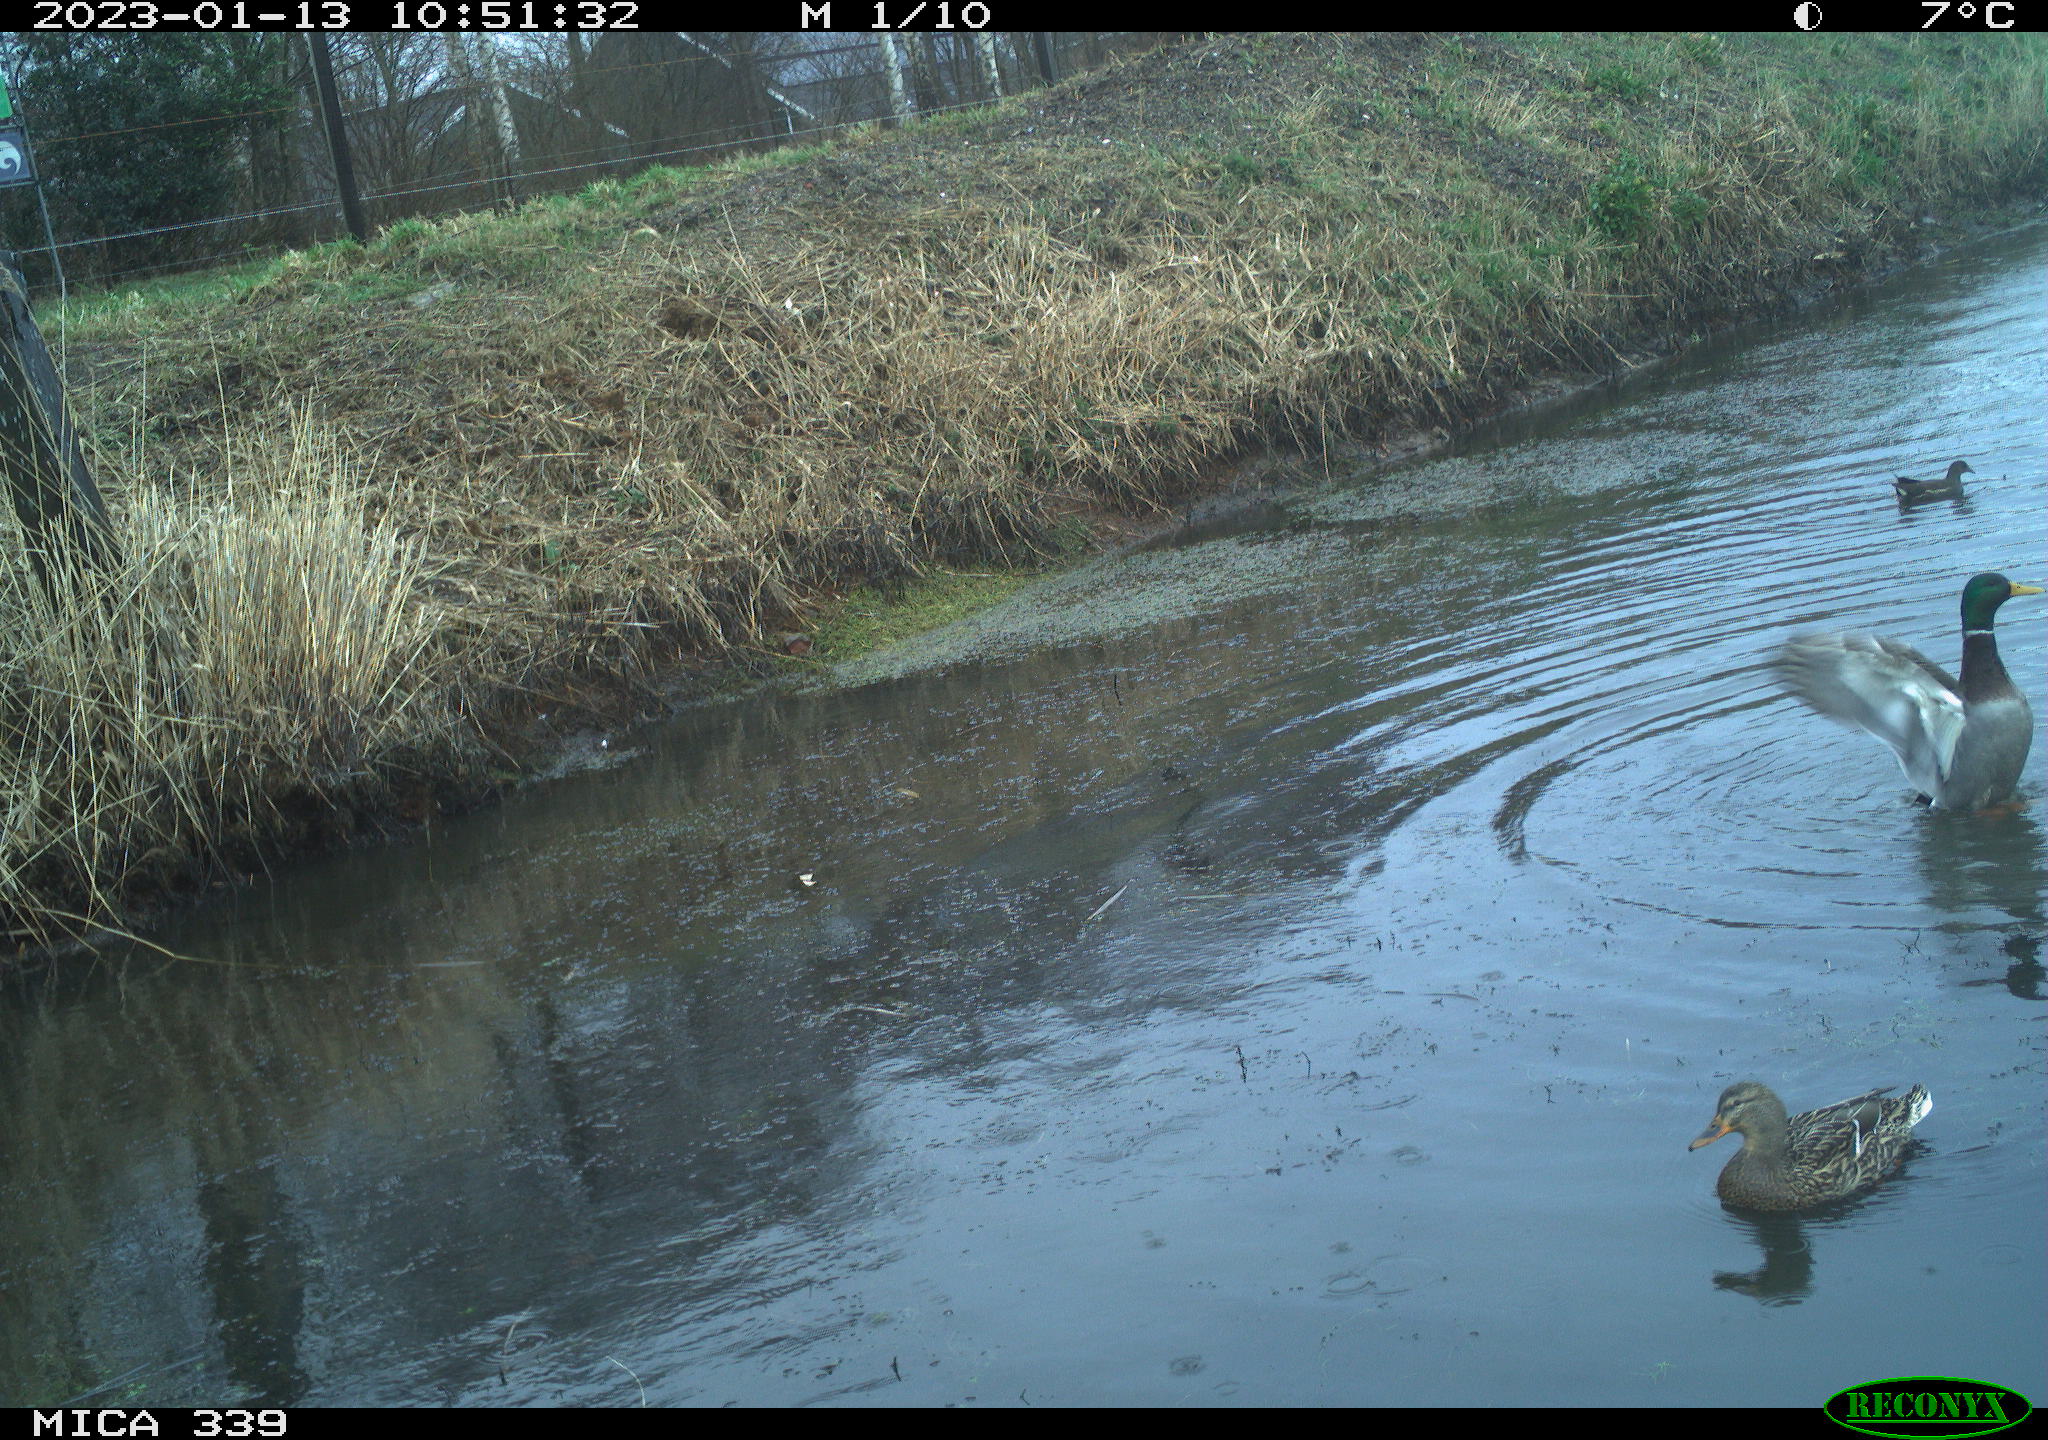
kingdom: Animalia
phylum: Chordata
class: Aves
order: Anseriformes
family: Anatidae
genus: Anas
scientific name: Anas
